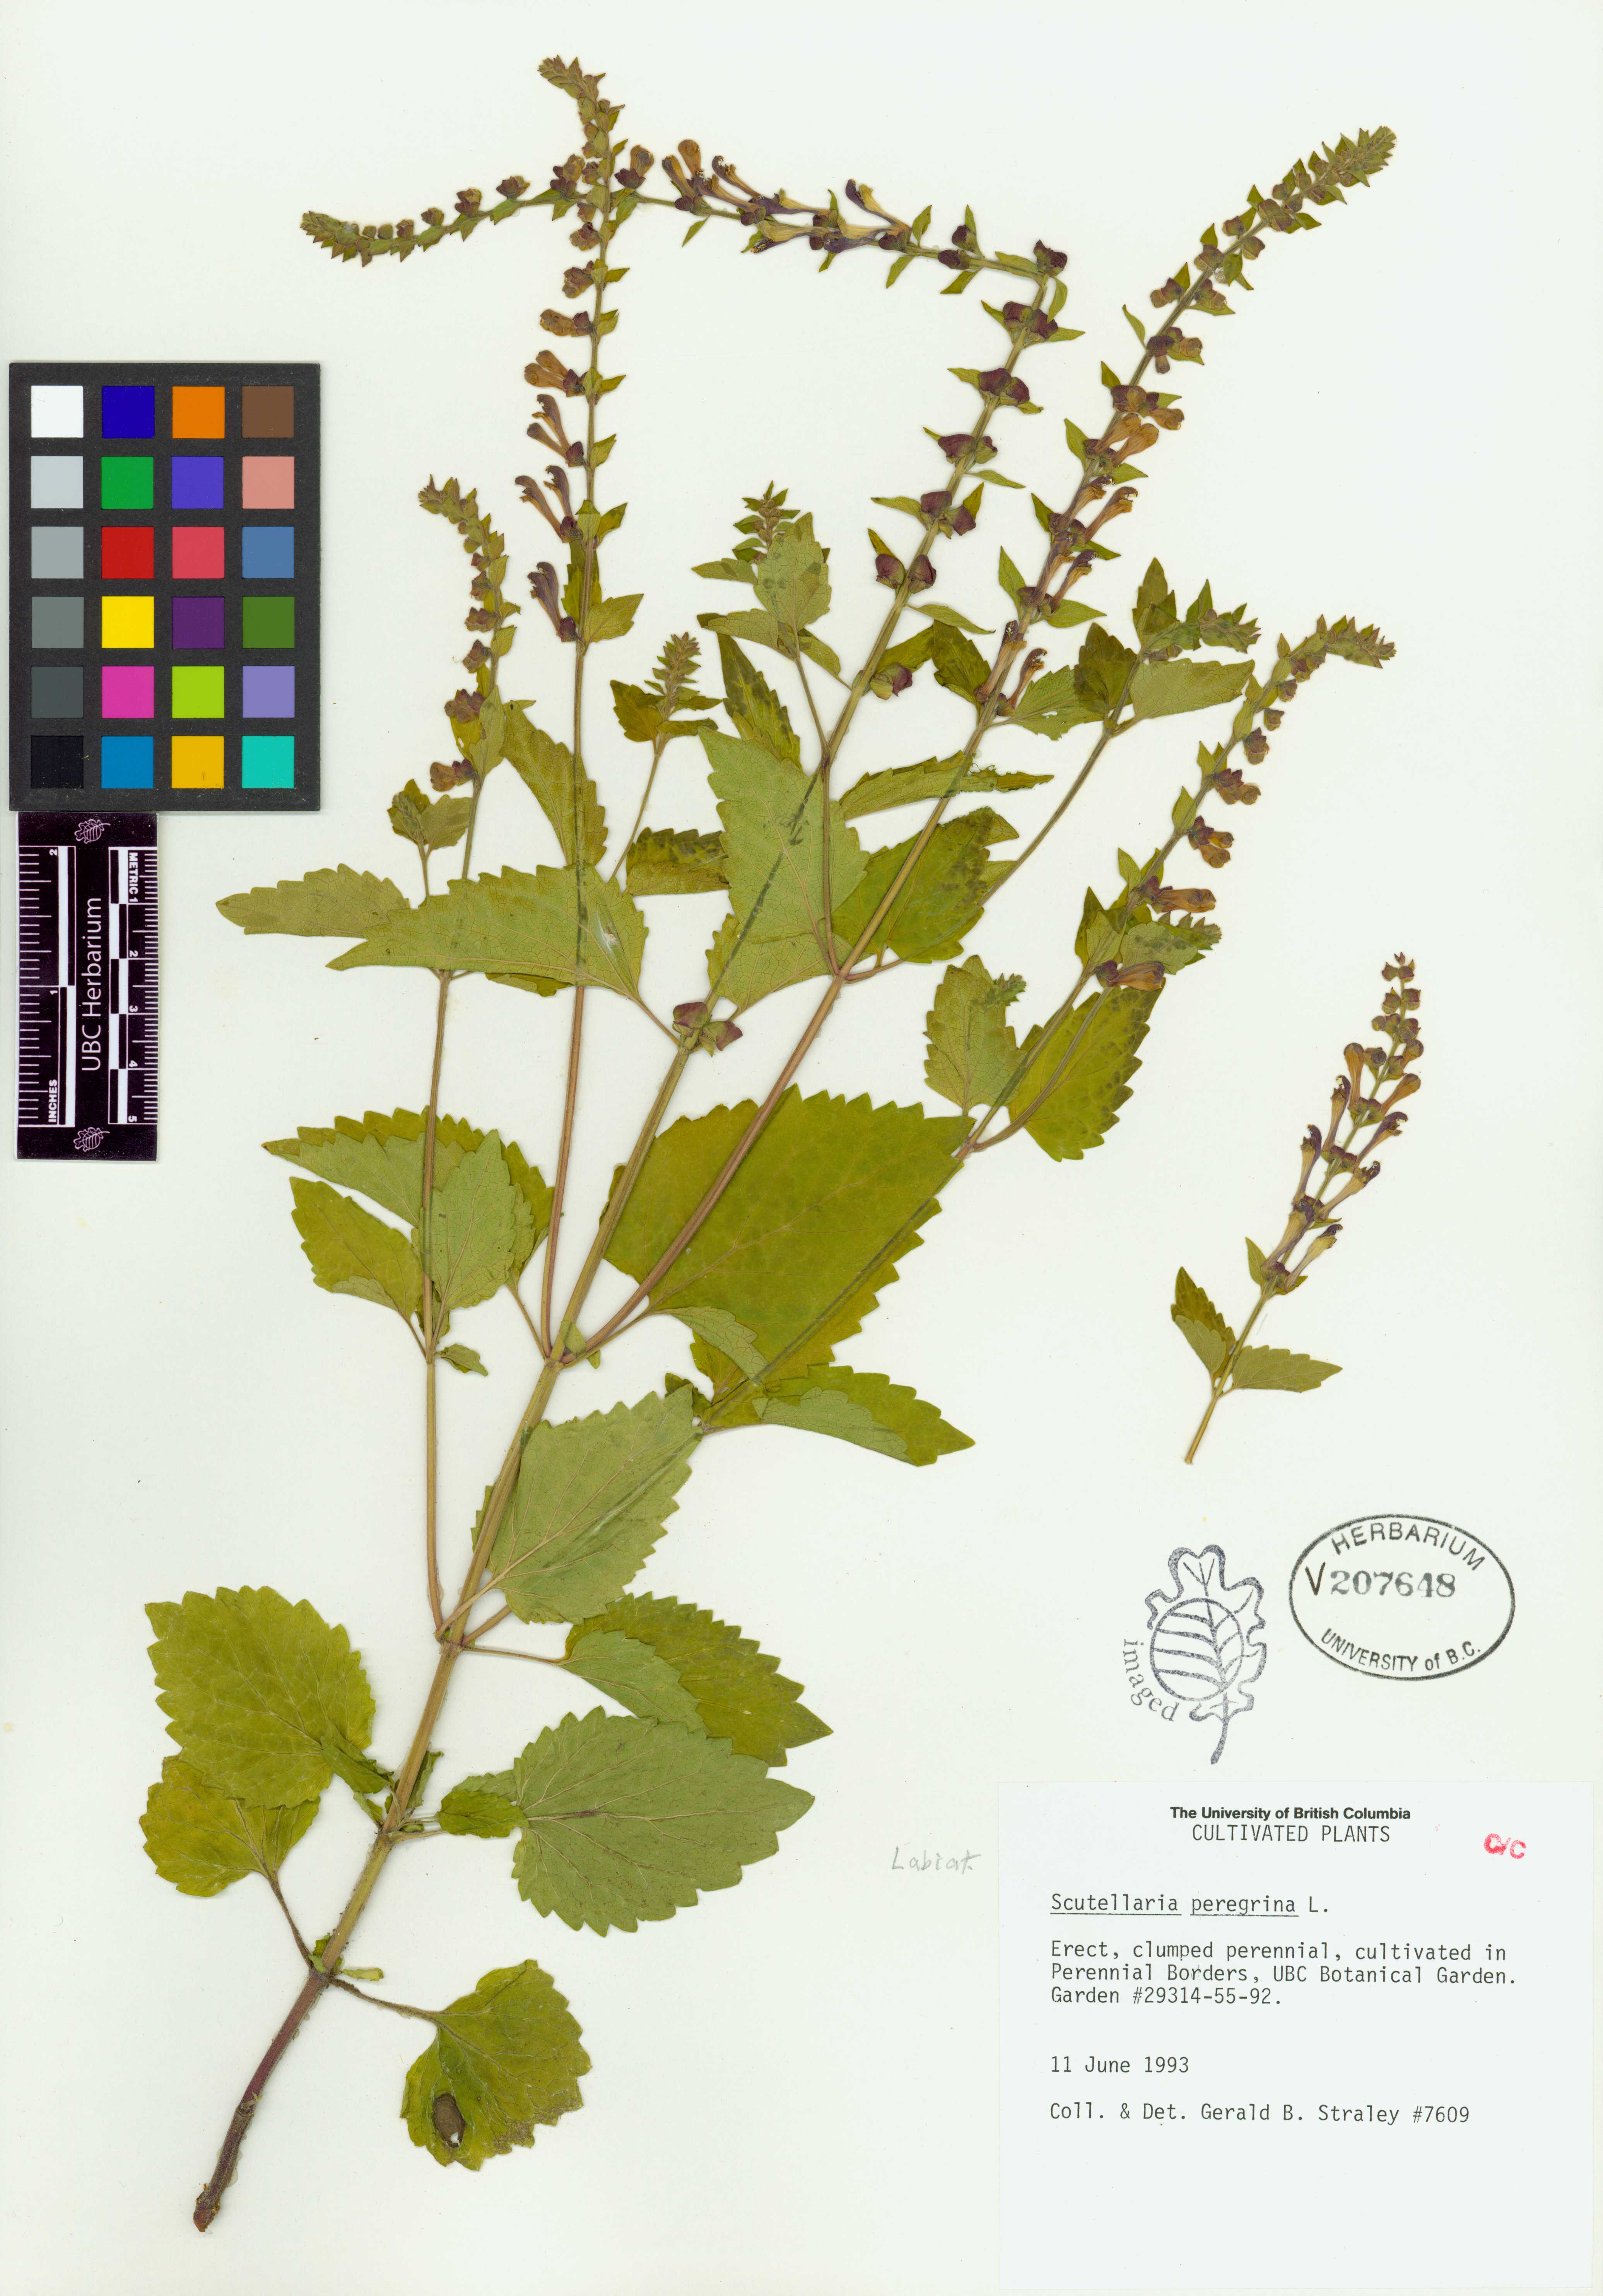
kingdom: Plantae
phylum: Tracheophyta
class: Magnoliopsida
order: Lamiales
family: Lamiaceae
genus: Scutellaria
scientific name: Scutellaria peregrina
